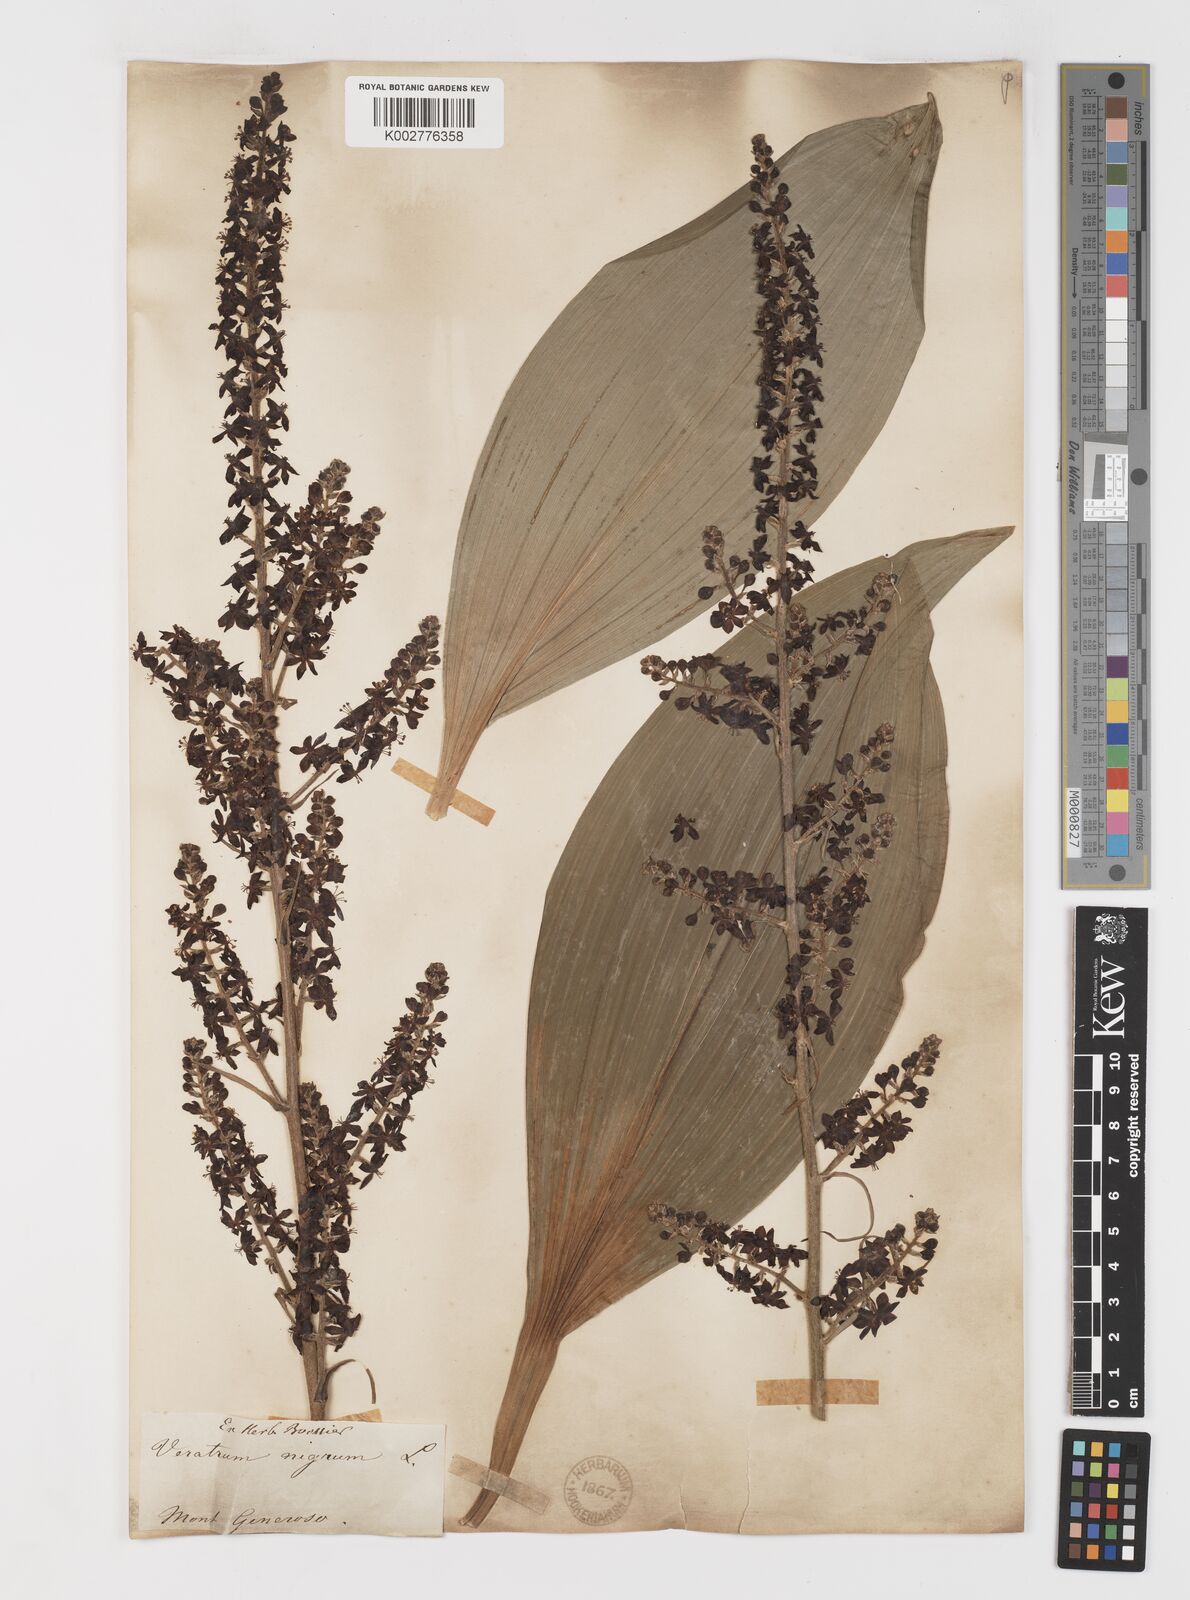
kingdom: Plantae
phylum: Tracheophyta
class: Liliopsida
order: Liliales
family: Melanthiaceae
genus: Veratrum
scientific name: Veratrum nigrum
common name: Black veratrum
